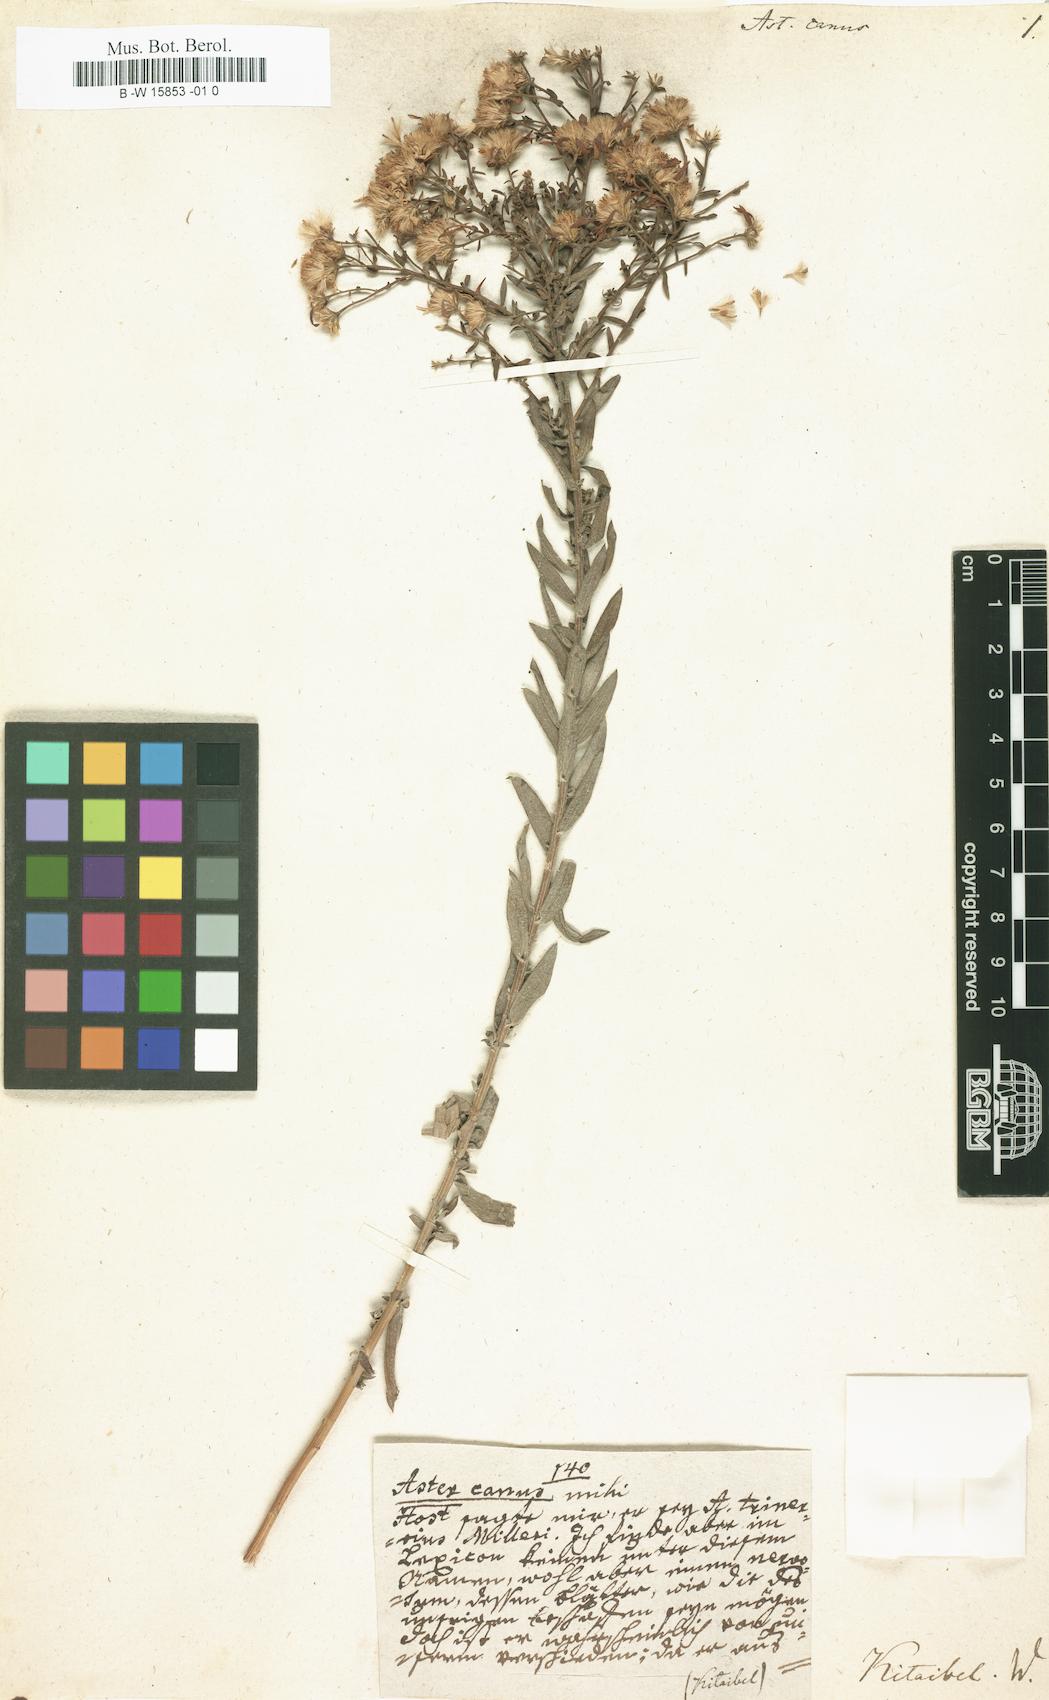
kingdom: Plantae
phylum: Tracheophyta
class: Magnoliopsida
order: Asterales
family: Asteraceae
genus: Galatella
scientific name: Galatella cana
